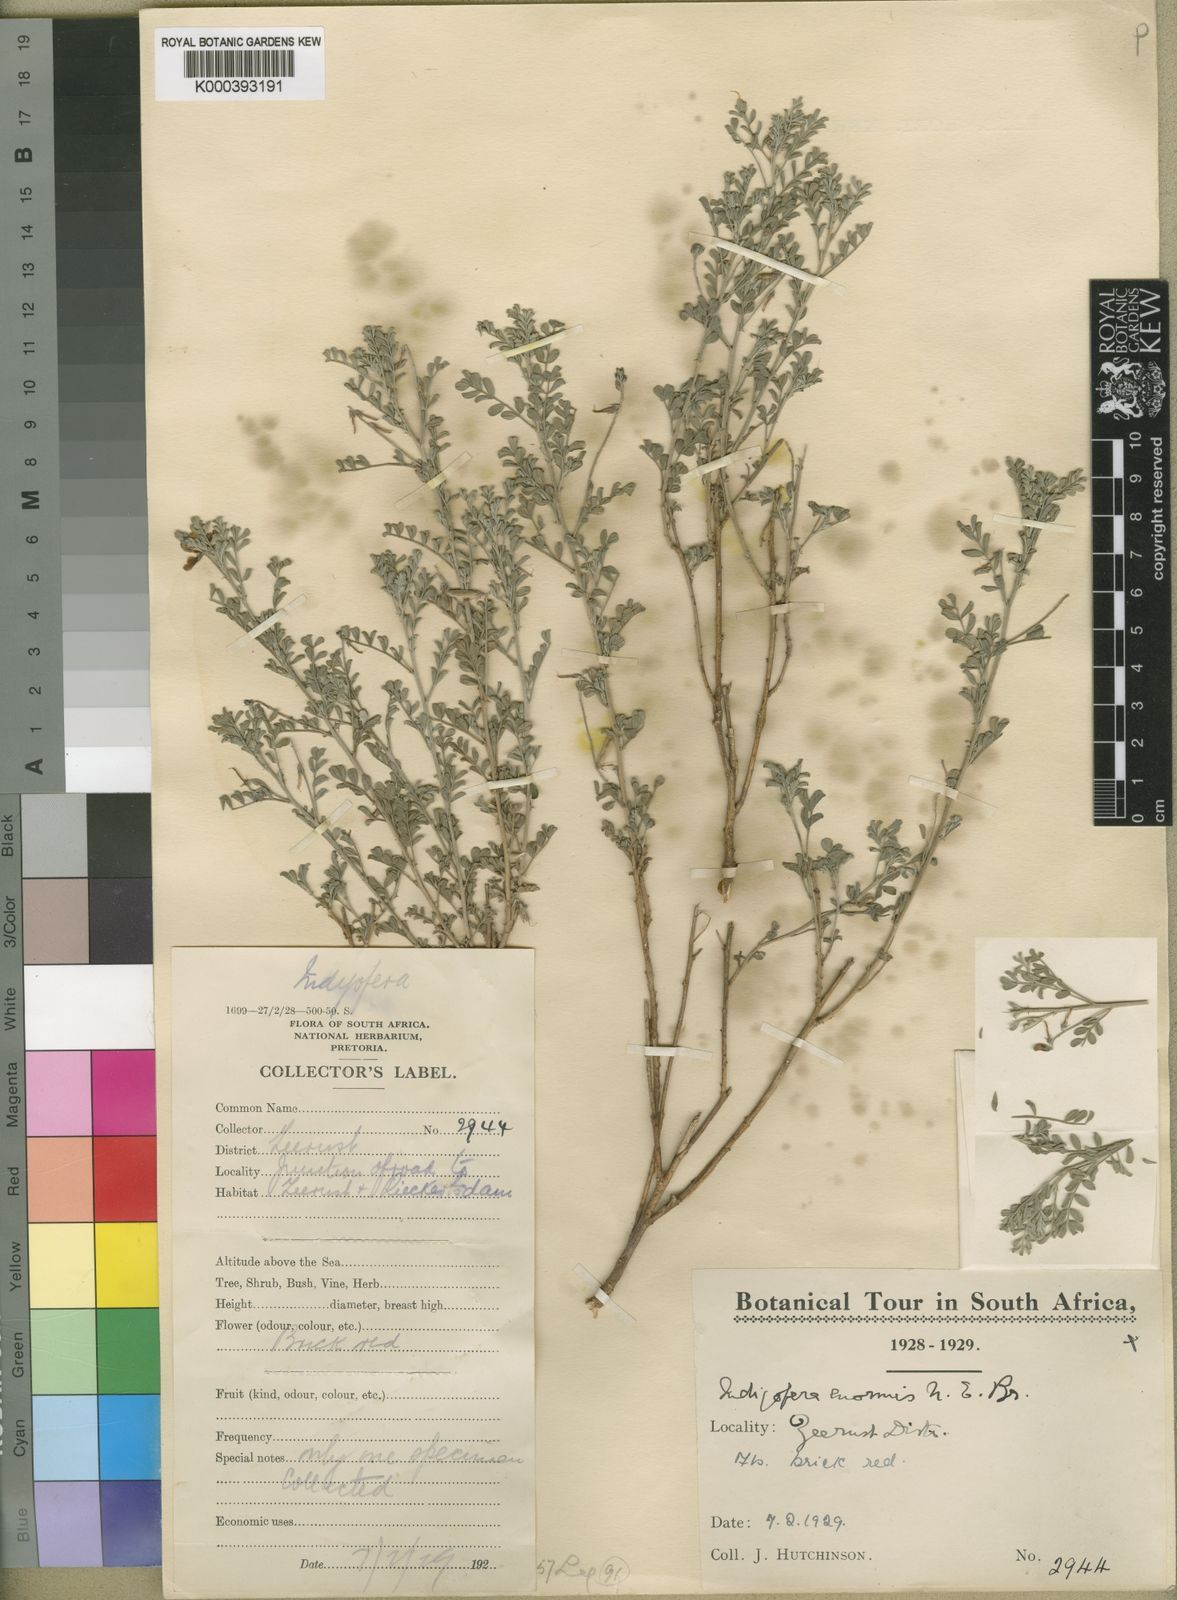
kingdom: Plantae
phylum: Tracheophyta
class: Magnoliopsida
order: Fabales
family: Fabaceae
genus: Indigofera
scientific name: Indigofera enormis
